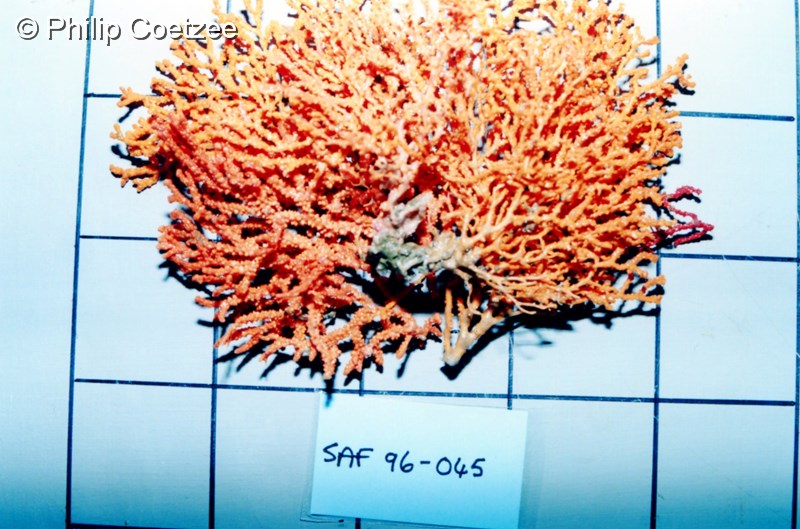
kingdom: Animalia
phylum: Cnidaria
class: Anthozoa
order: Malacalcyonacea
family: Melithaeidae
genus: Melithaea
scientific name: Melithaea rubra
